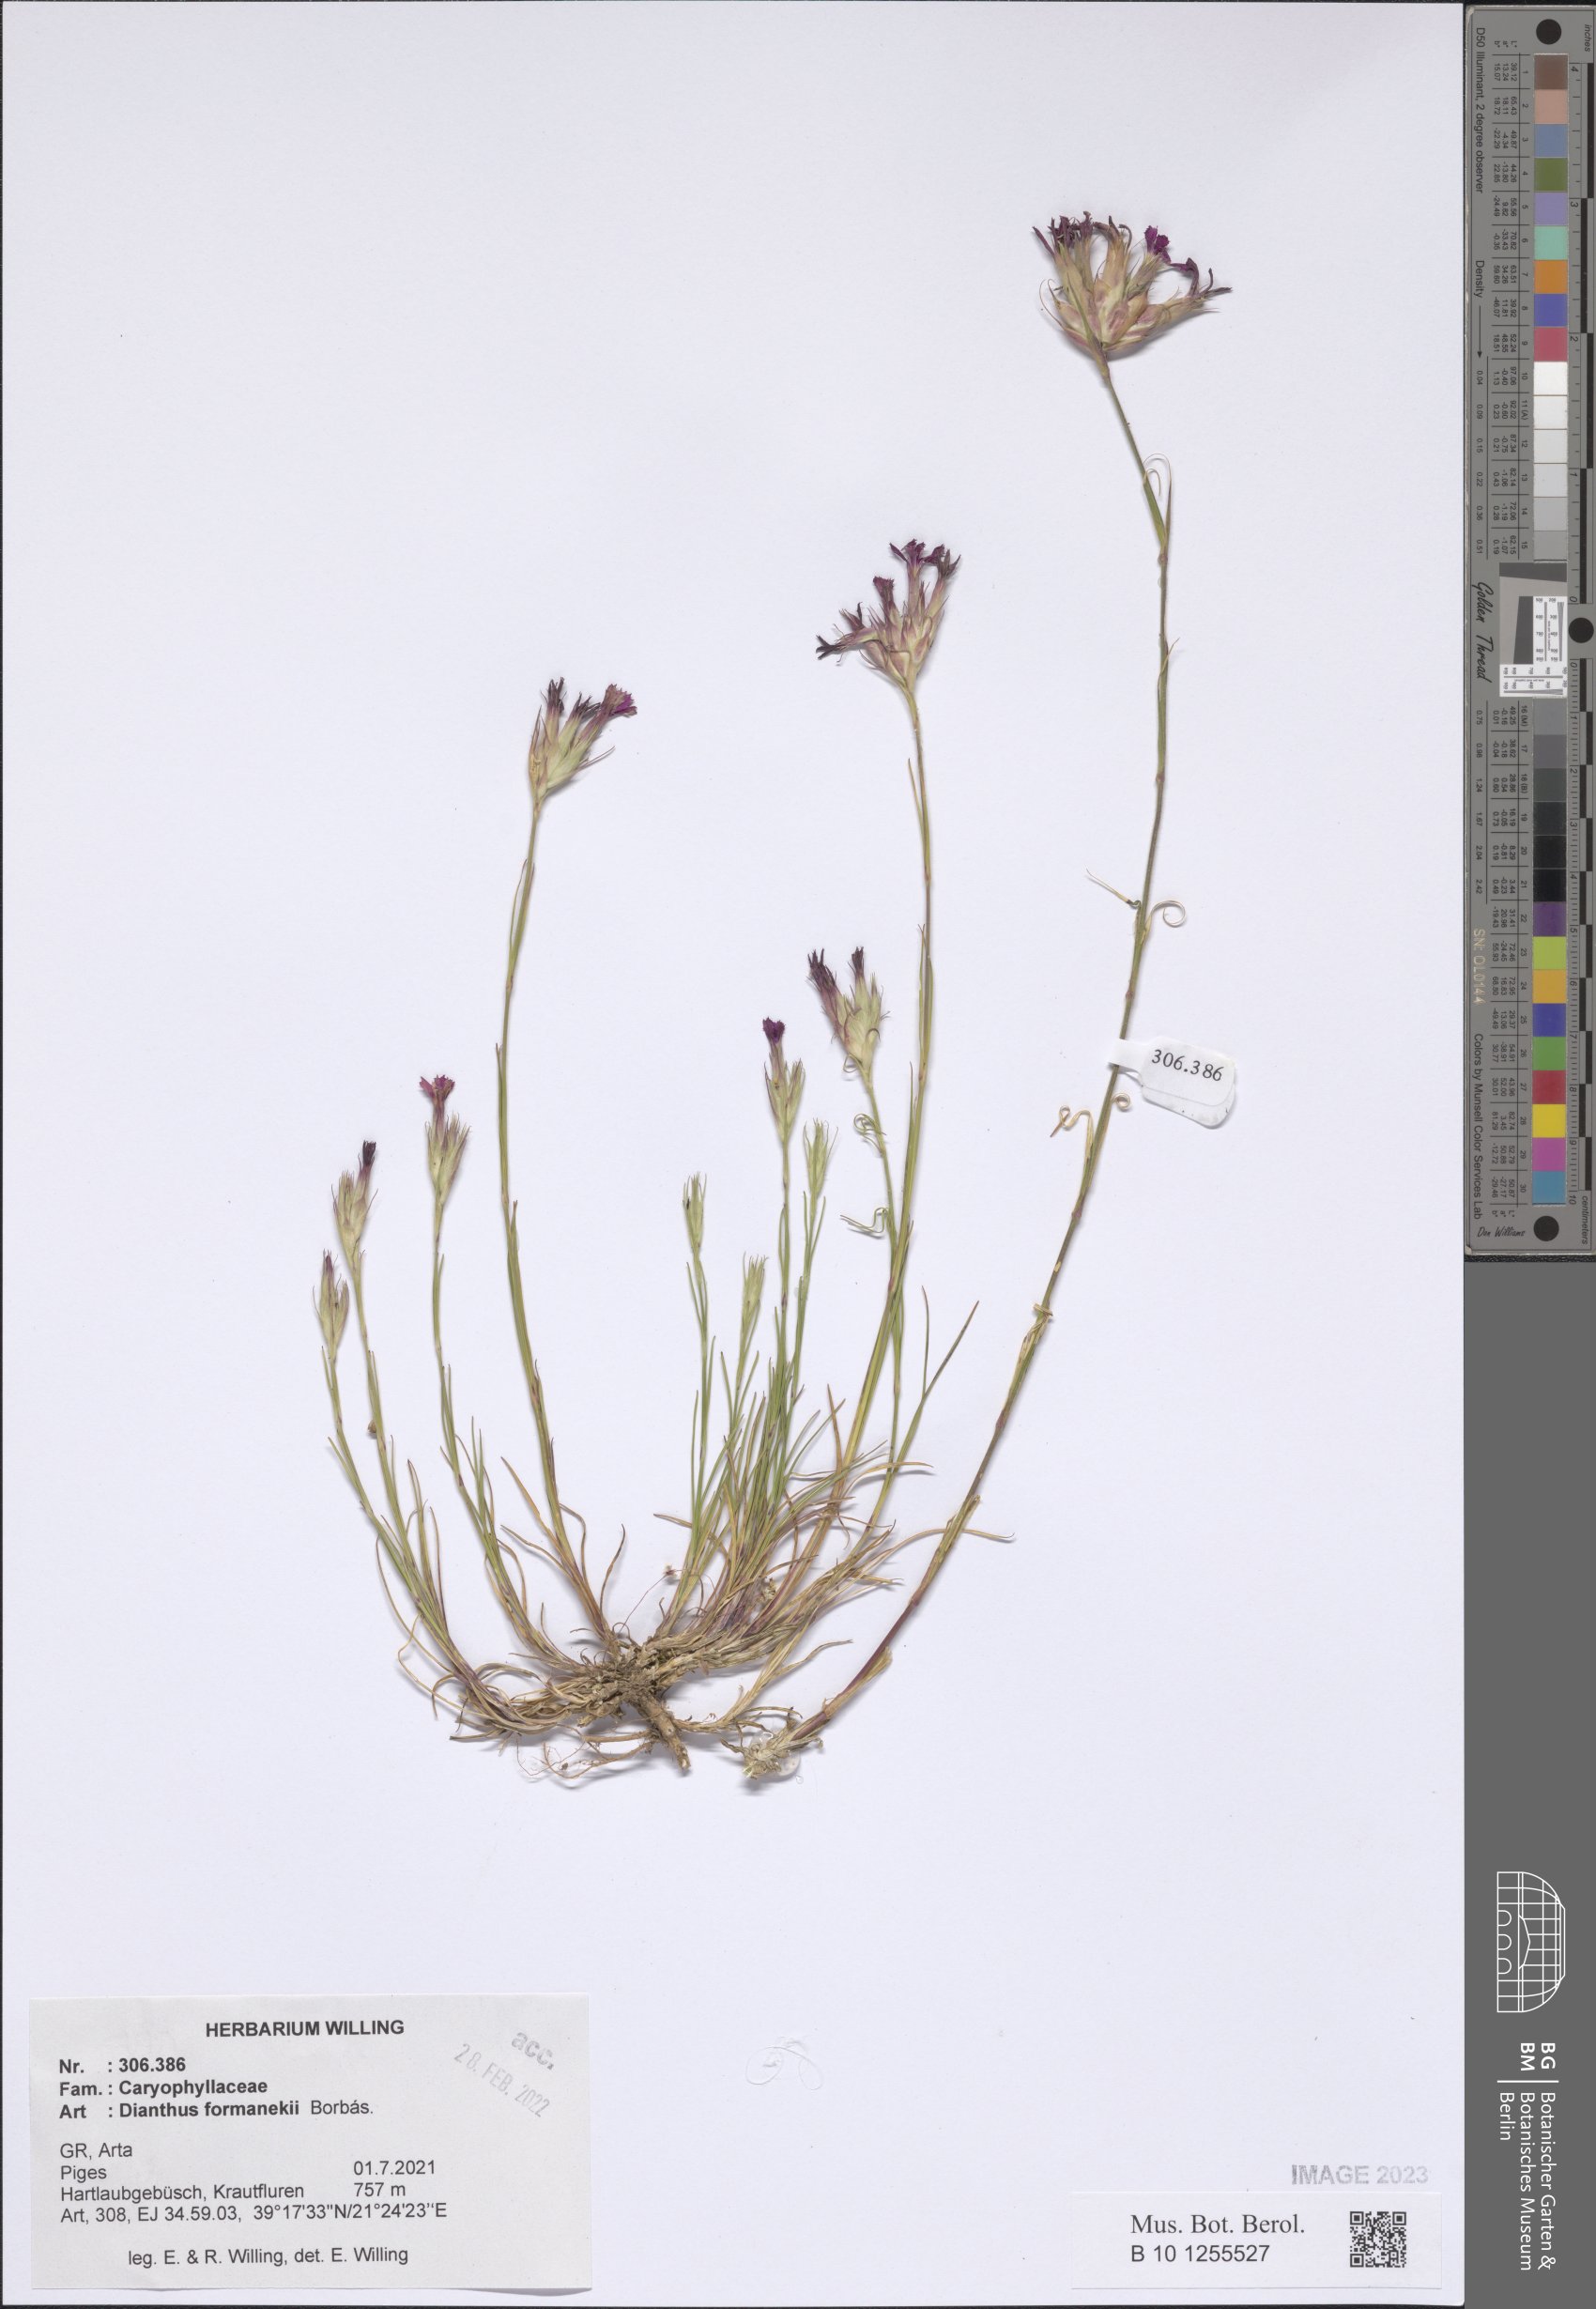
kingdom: Plantae
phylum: Tracheophyta
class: Magnoliopsida
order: Caryophyllales
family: Caryophyllaceae
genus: Dianthus
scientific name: Dianthus formanekii
